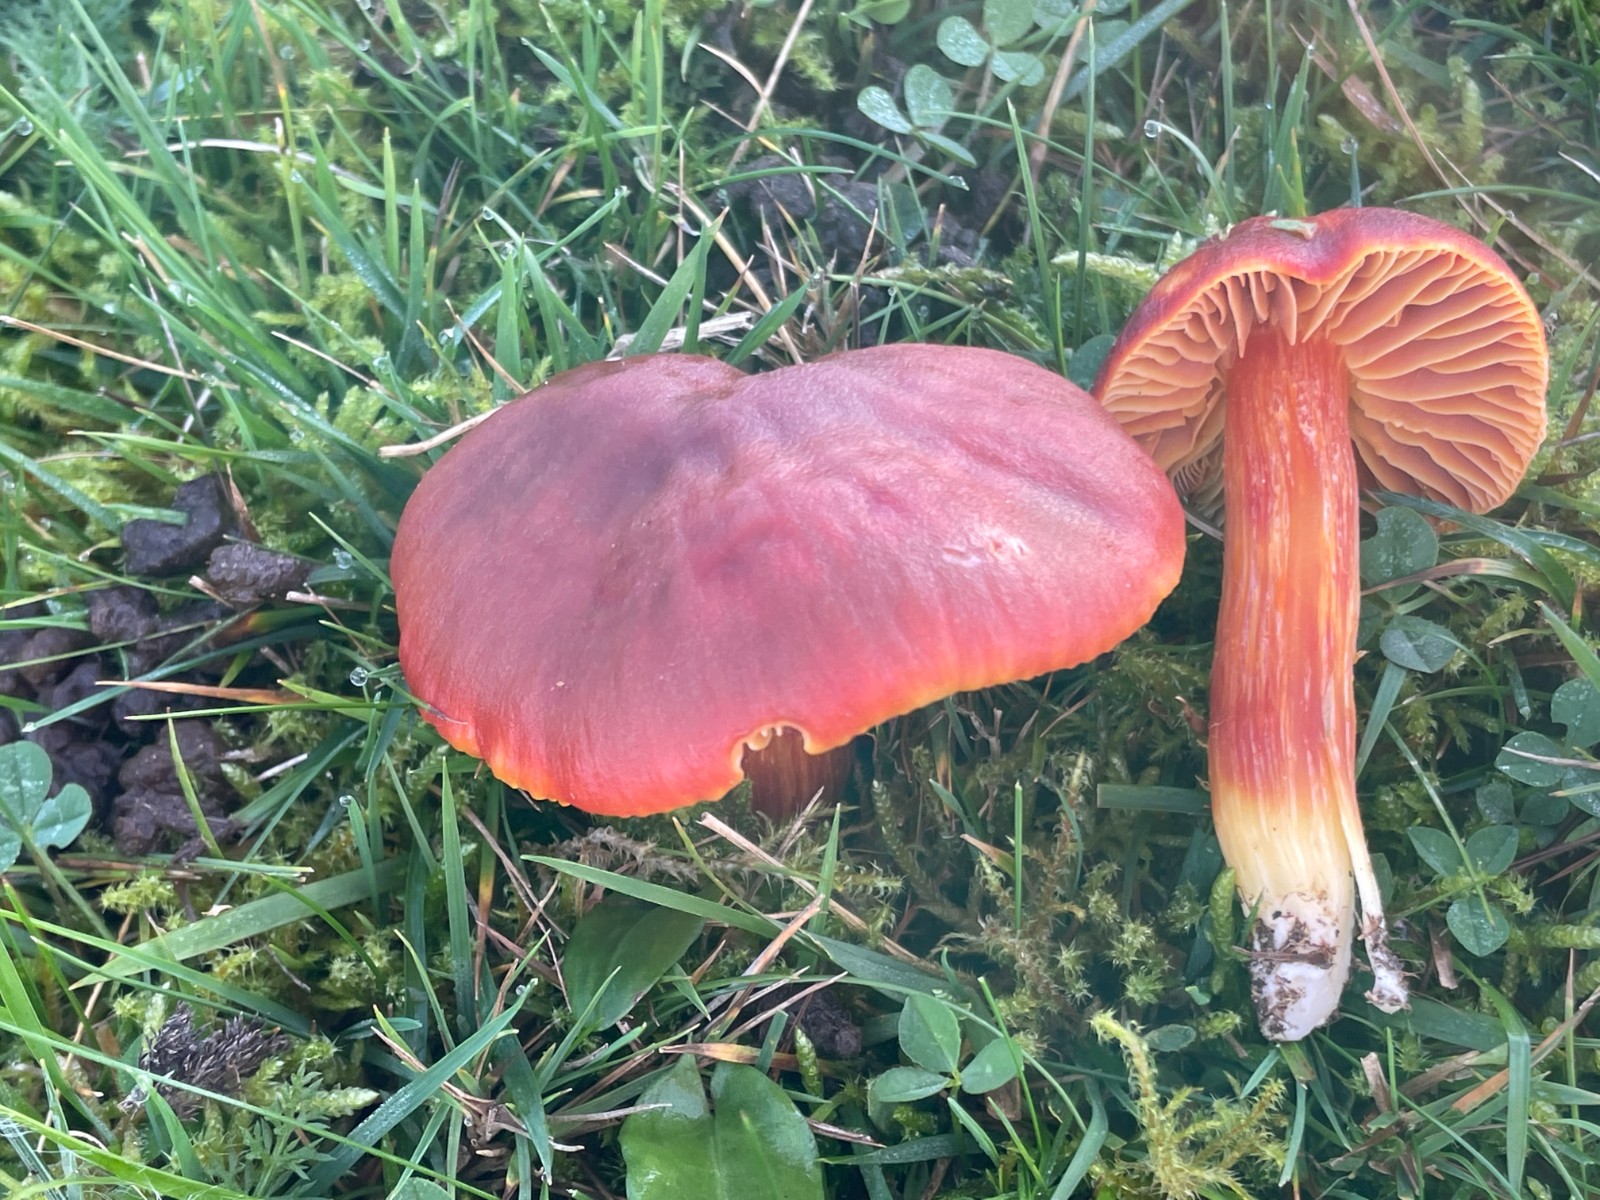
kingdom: Fungi
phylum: Basidiomycota
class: Agaricomycetes
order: Agaricales
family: Hygrophoraceae
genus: Hygrocybe
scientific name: Hygrocybe punicea
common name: skarlagen-vokshat
